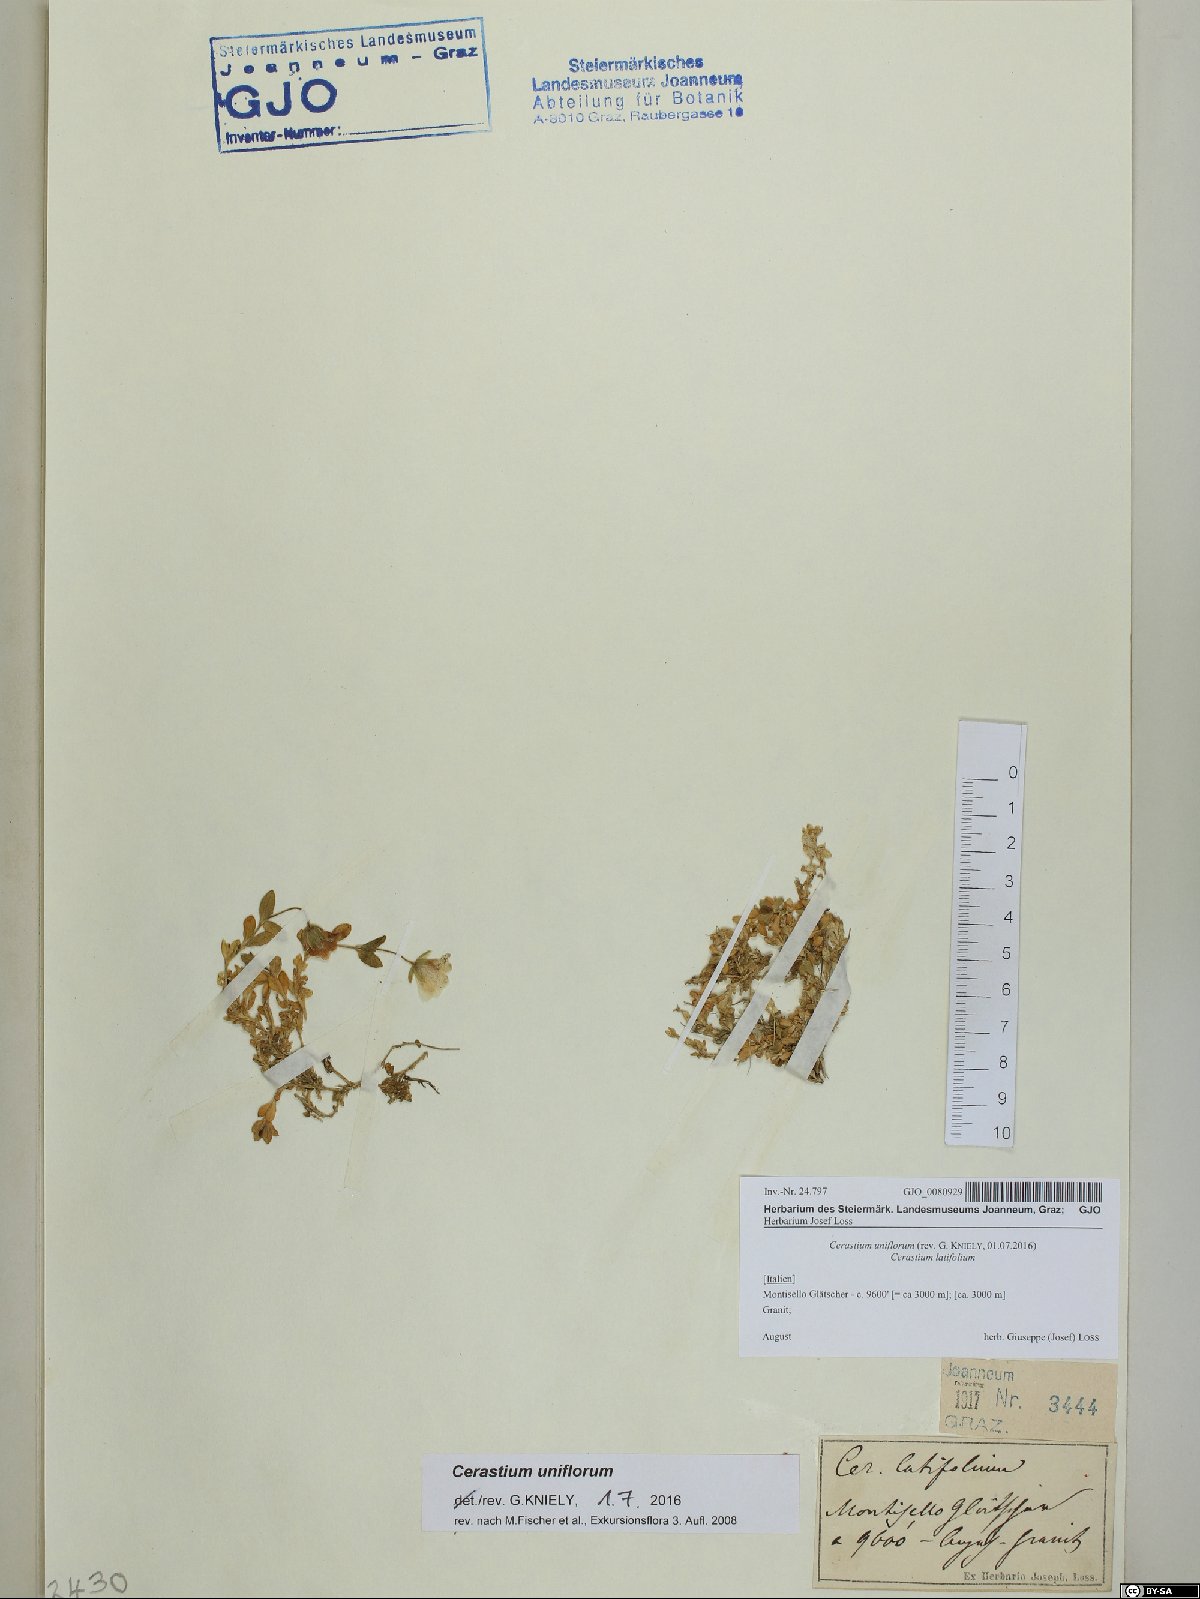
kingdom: Plantae
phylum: Tracheophyta
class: Magnoliopsida
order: Caryophyllales
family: Caryophyllaceae
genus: Cerastium
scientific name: Cerastium uniflorum
